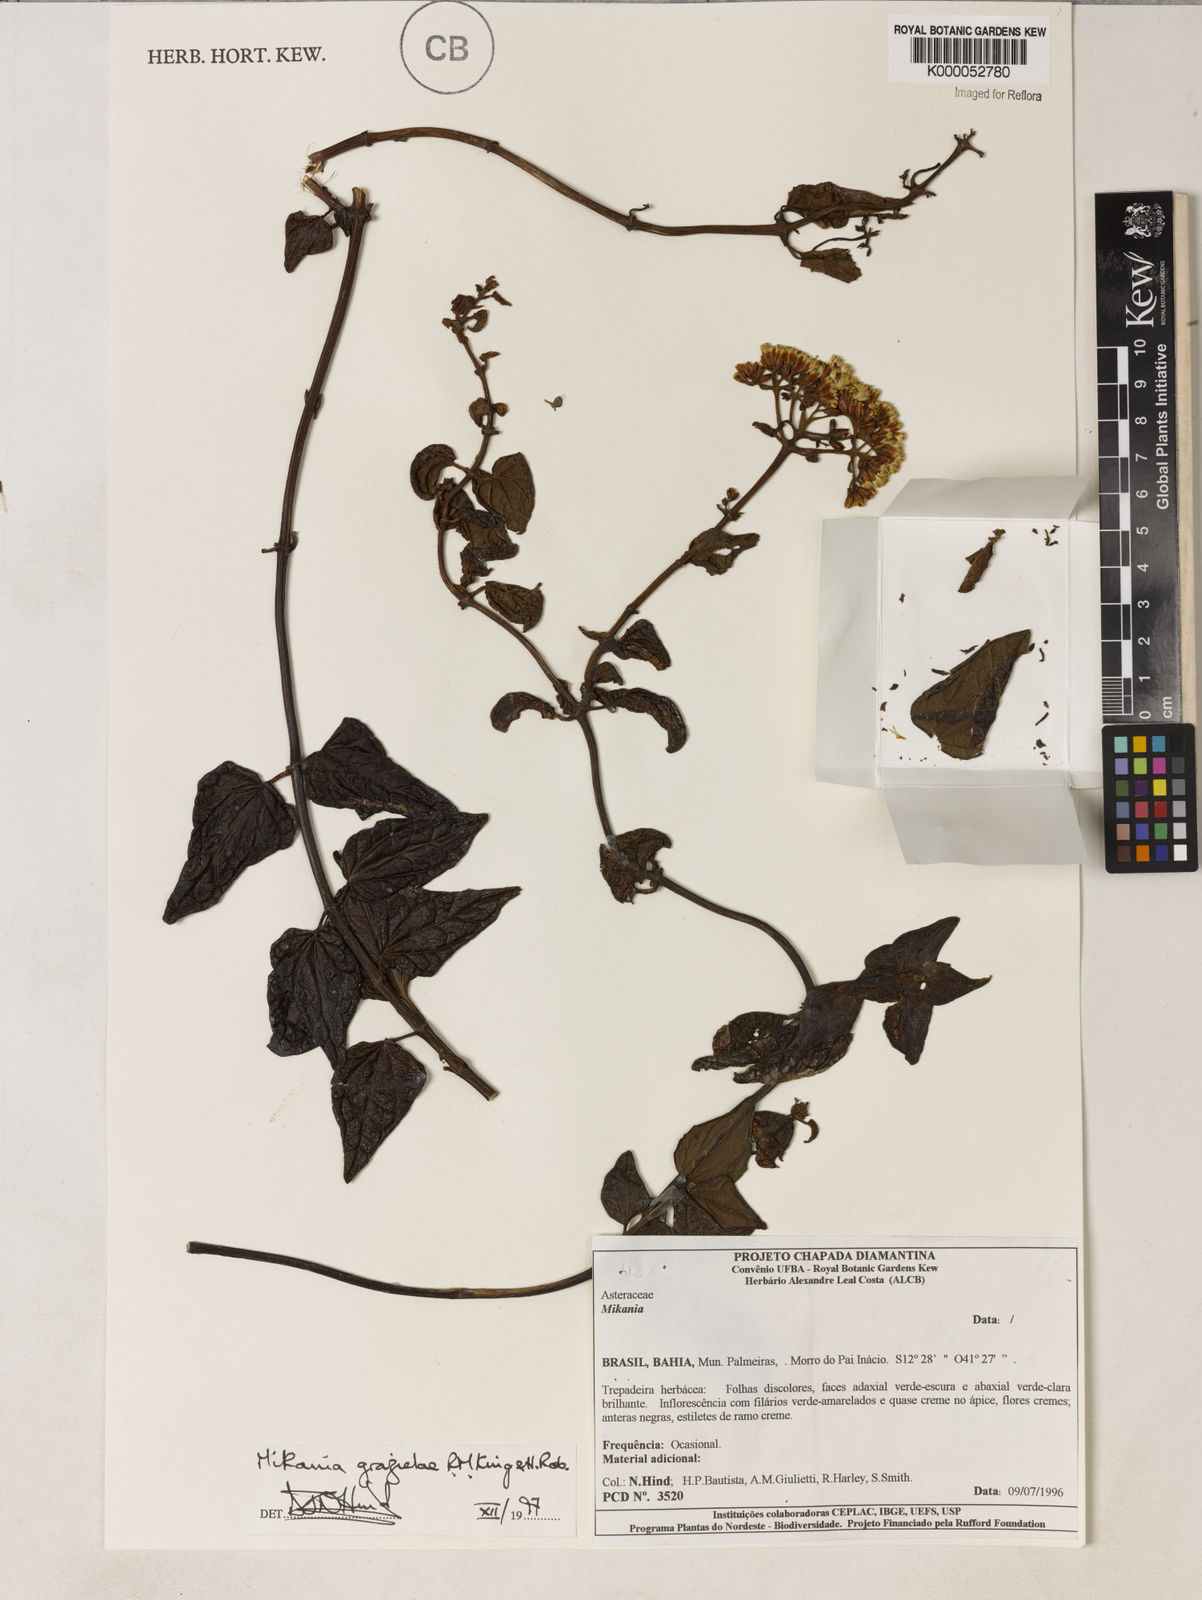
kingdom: Plantae
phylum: Tracheophyta
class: Magnoliopsida
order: Asterales
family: Asteraceae
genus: Mikania
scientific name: Mikania grazielae
